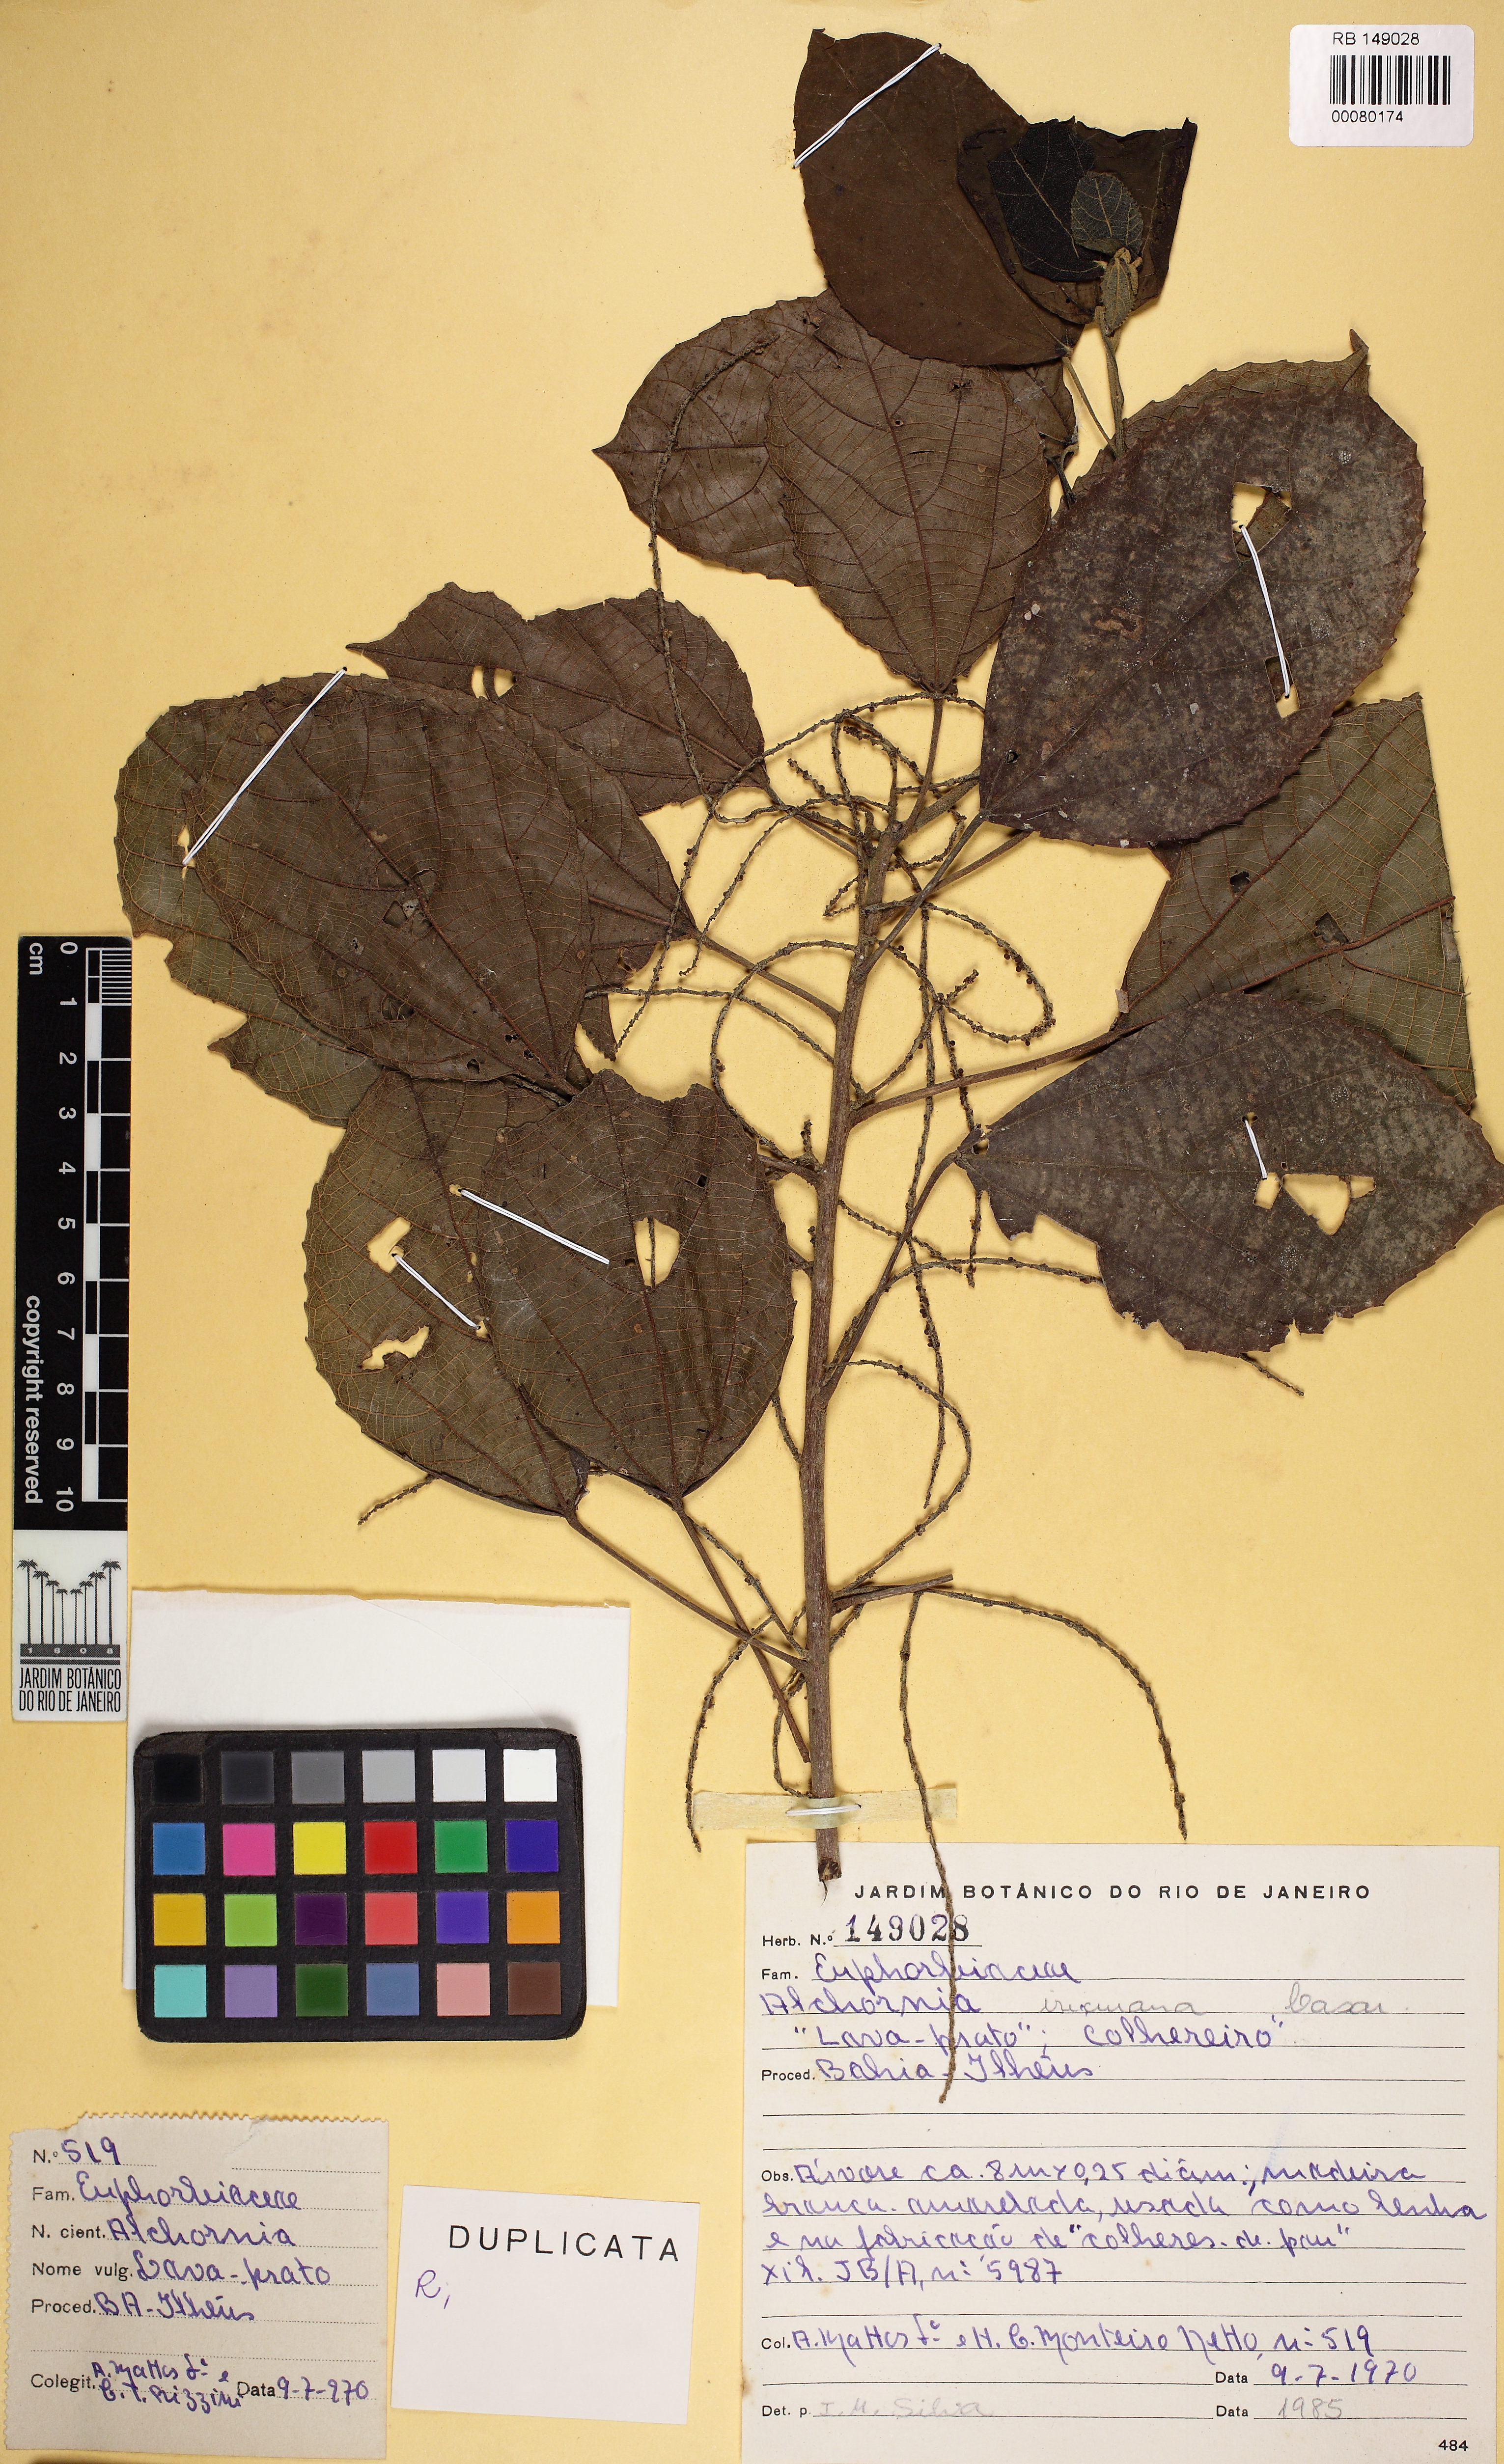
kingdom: Plantae
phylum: Tracheophyta
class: Magnoliopsida
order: Malpighiales
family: Euphorbiaceae
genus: Alchornea
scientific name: Alchornea glandulosa
